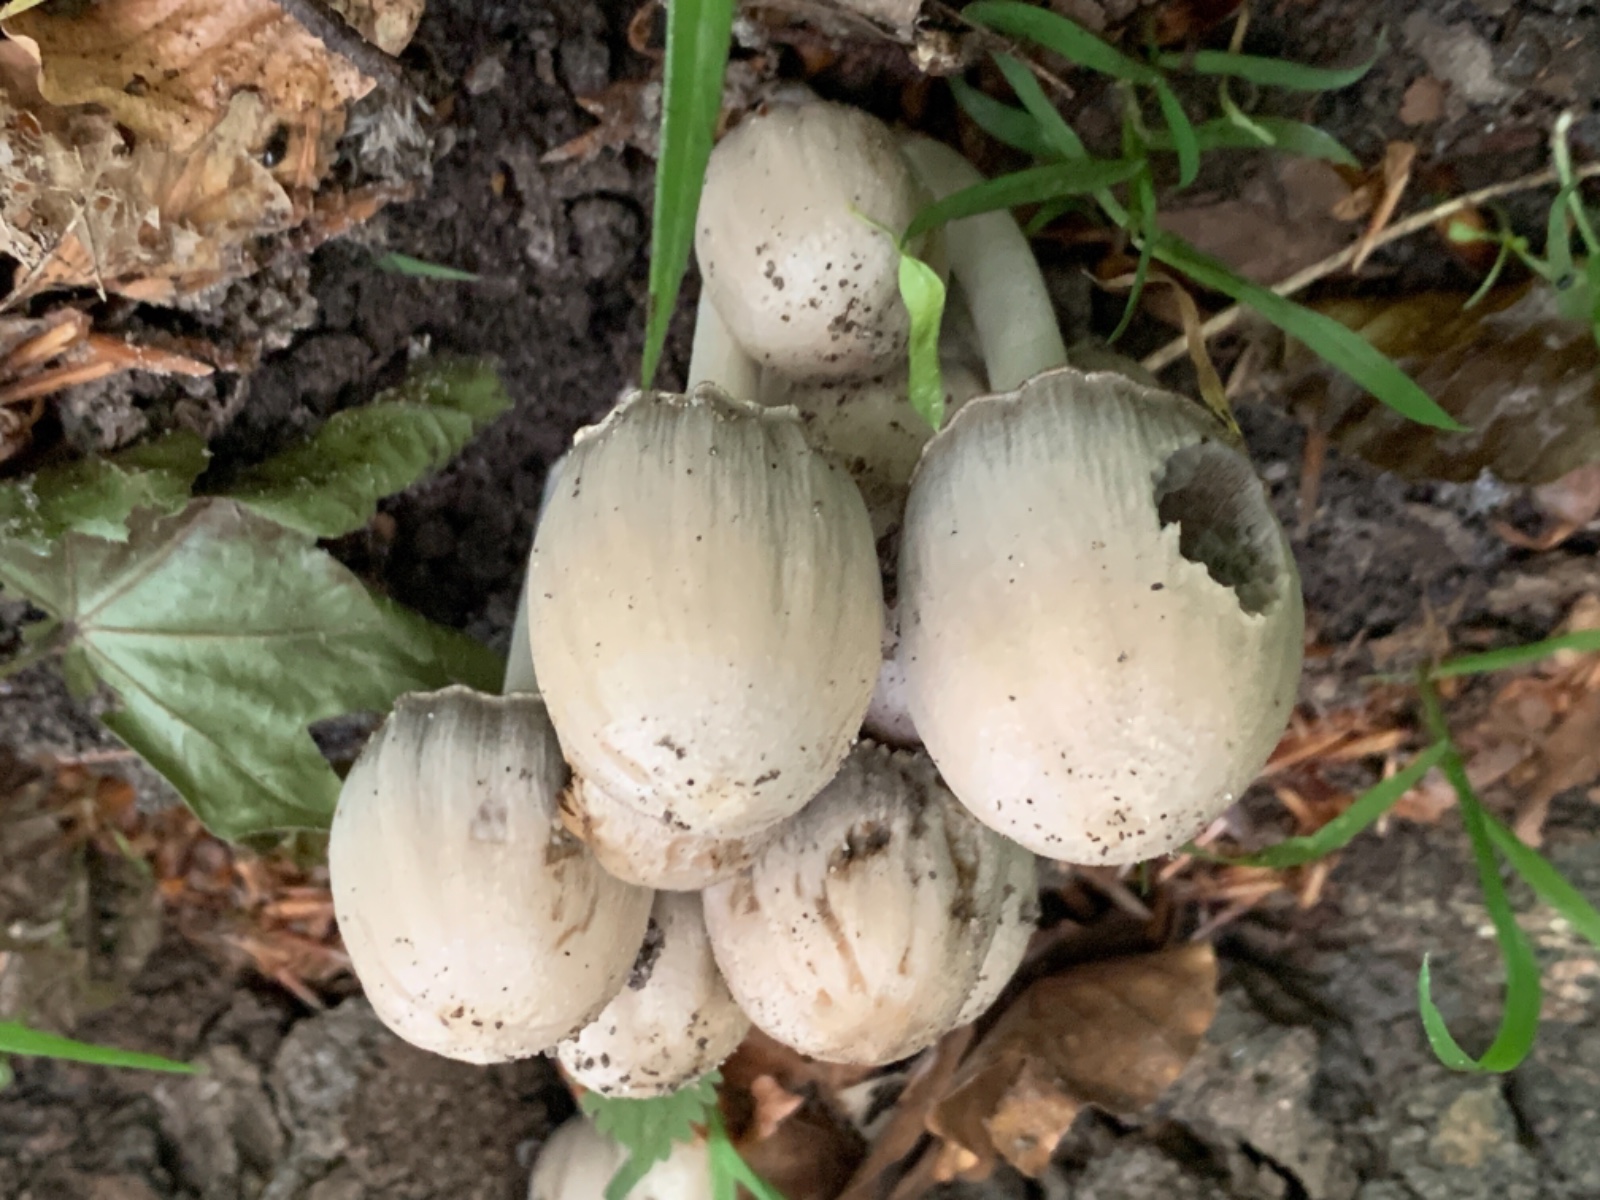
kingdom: Fungi
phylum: Basidiomycota
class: Agaricomycetes
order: Agaricales
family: Psathyrellaceae
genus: Coprinopsis
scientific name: Coprinopsis atramentaria
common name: almindelig blækhat
